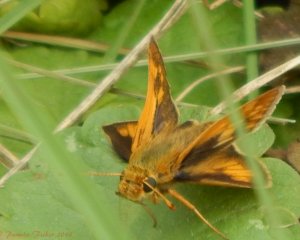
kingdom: Animalia
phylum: Arthropoda
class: Insecta
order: Lepidoptera
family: Hesperiidae
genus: Polites
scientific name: Polites coras
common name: Peck's Skipper
